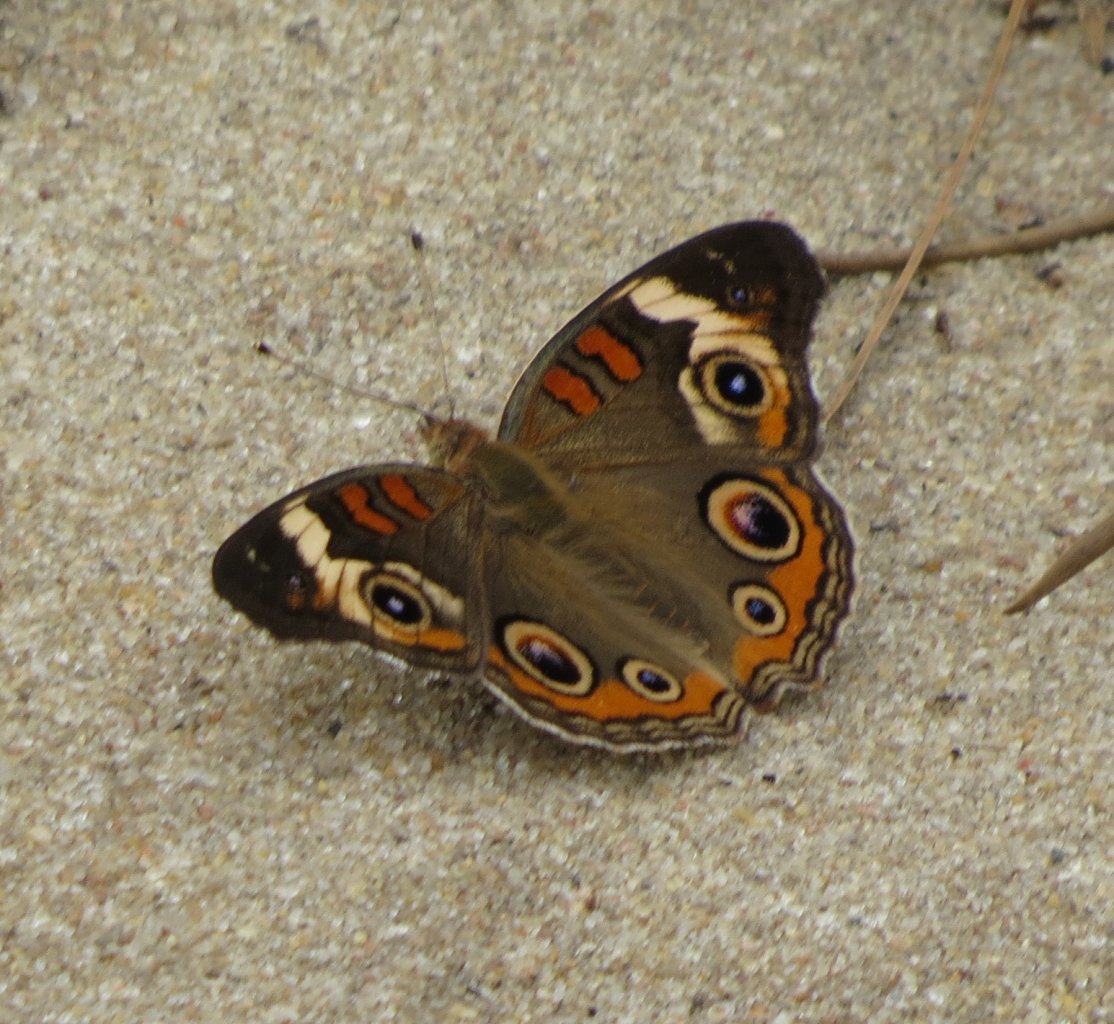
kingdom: Animalia
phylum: Arthropoda
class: Insecta
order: Lepidoptera
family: Nymphalidae
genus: Junonia
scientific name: Junonia coenia
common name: Common Buckeye
